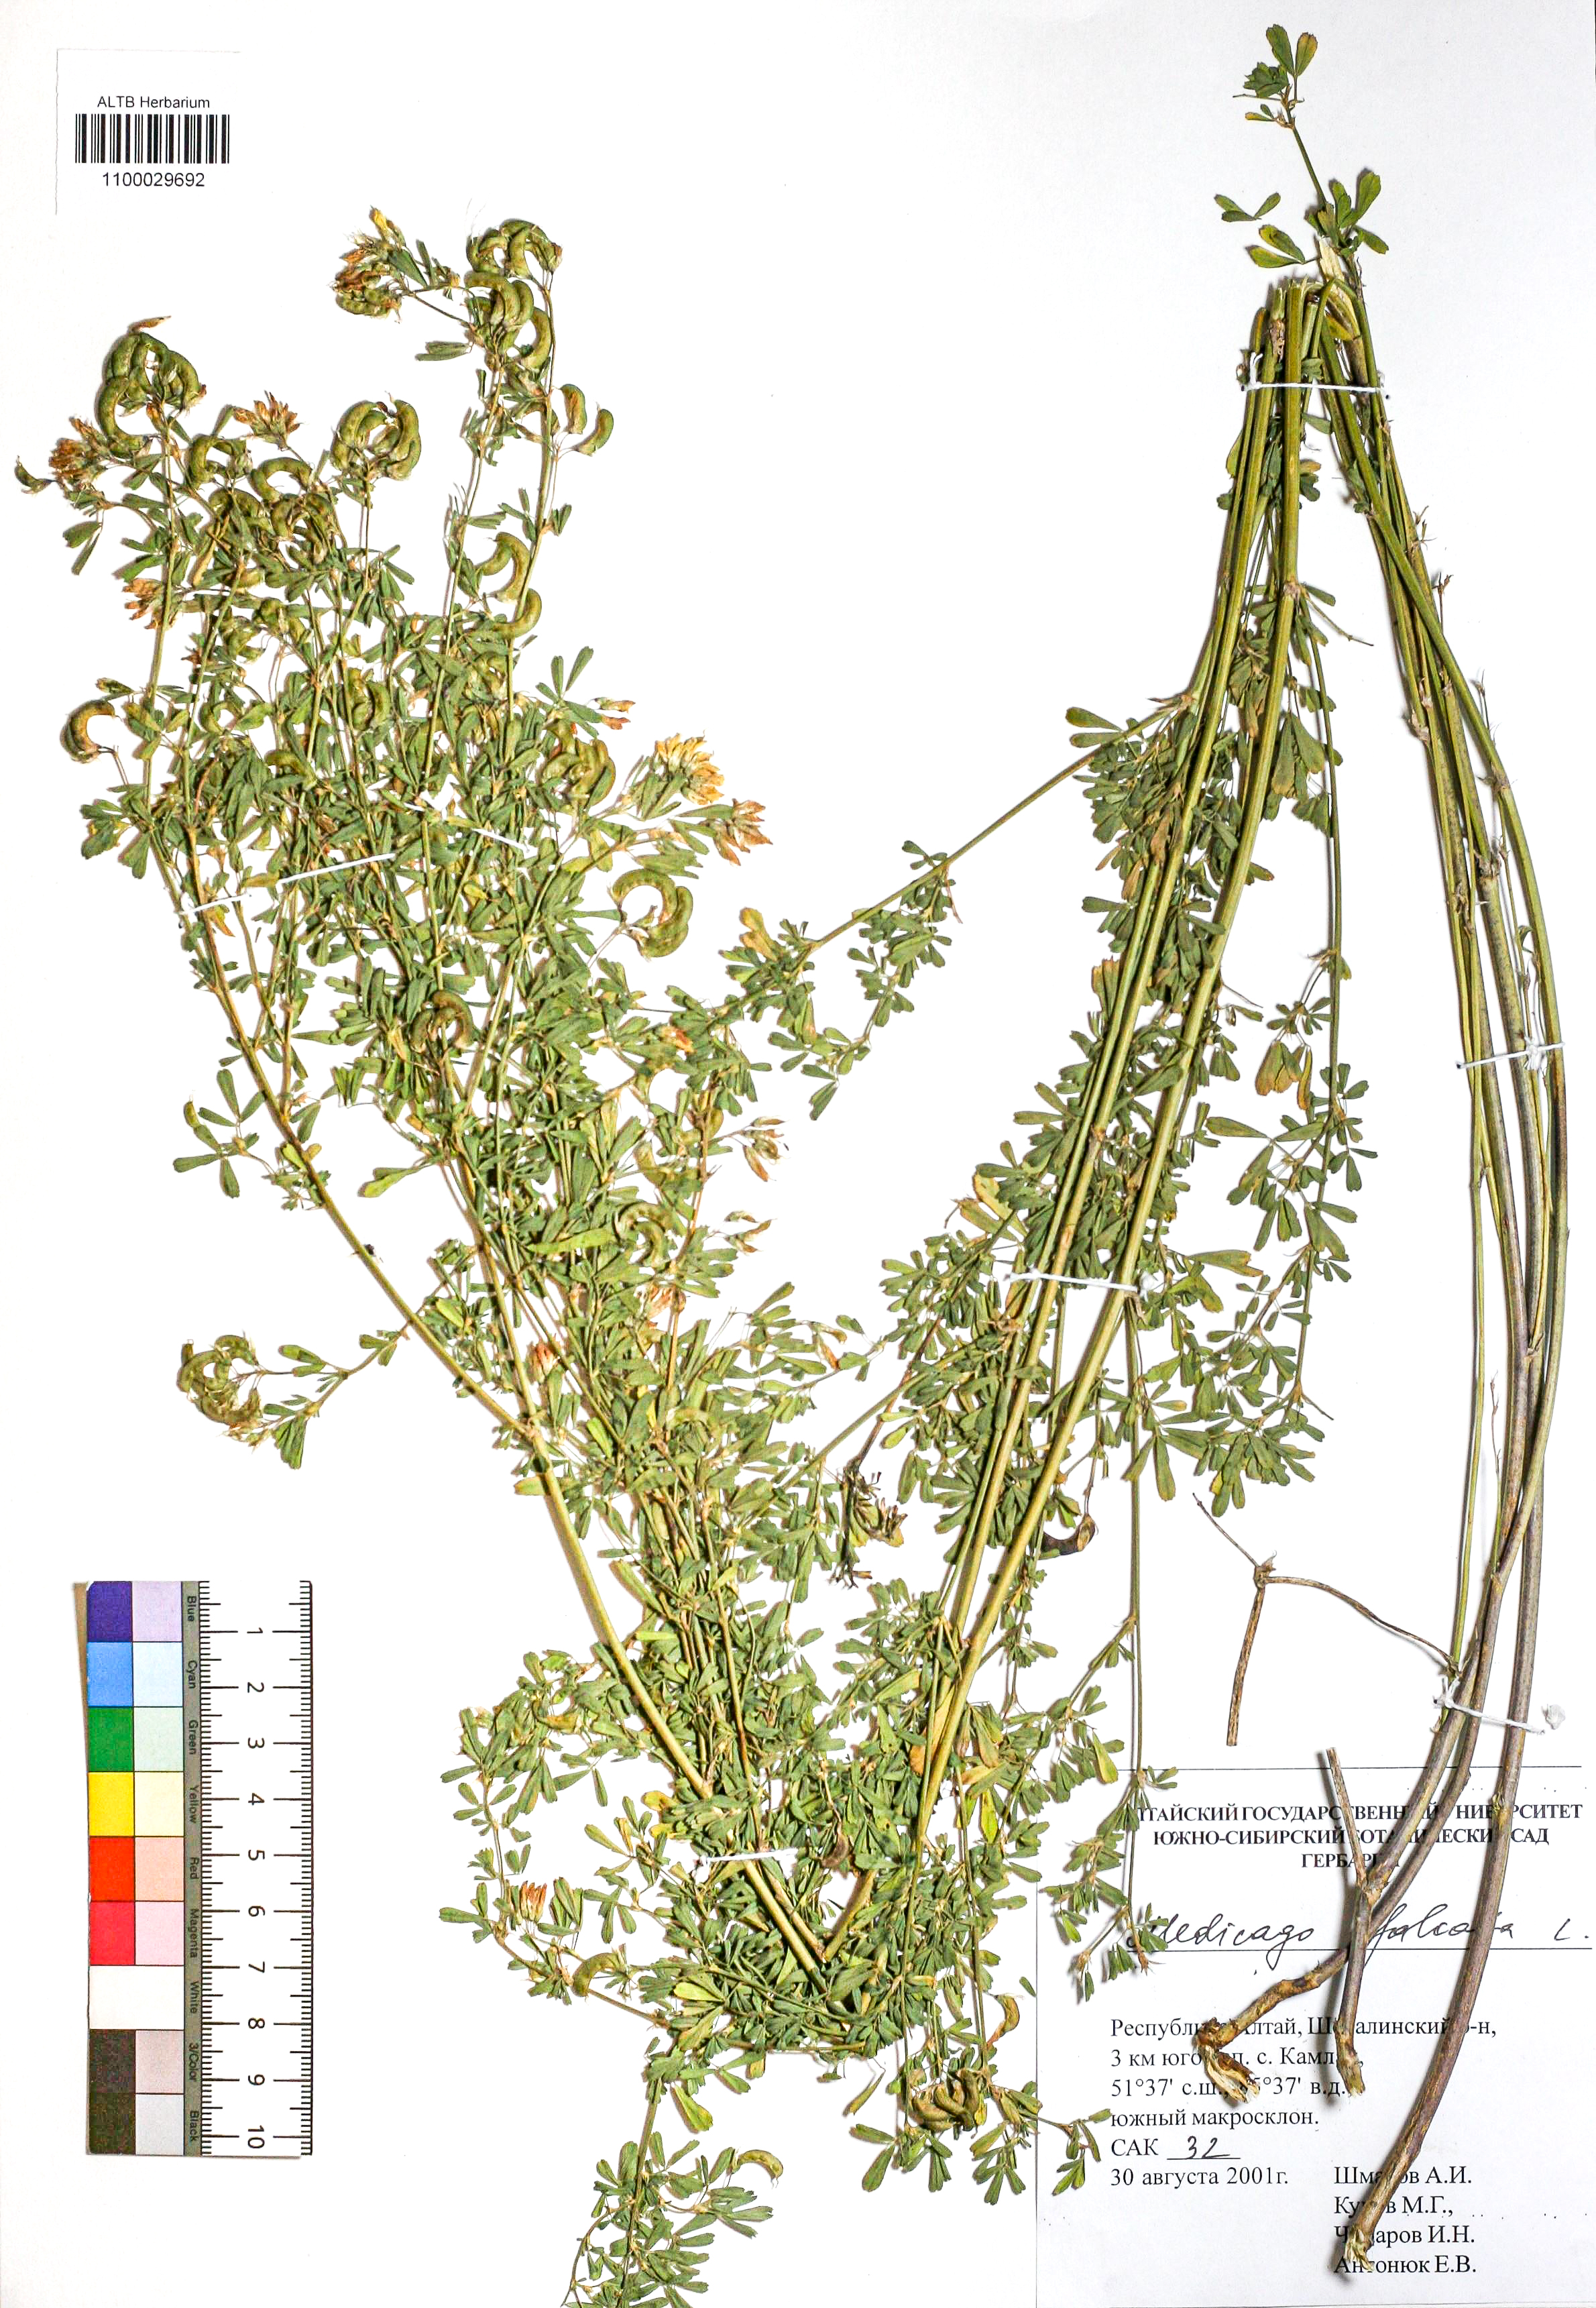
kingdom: Plantae
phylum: Tracheophyta
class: Magnoliopsida
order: Fabales
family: Fabaceae
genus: Medicago
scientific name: Medicago falcata
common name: Sickle medick
